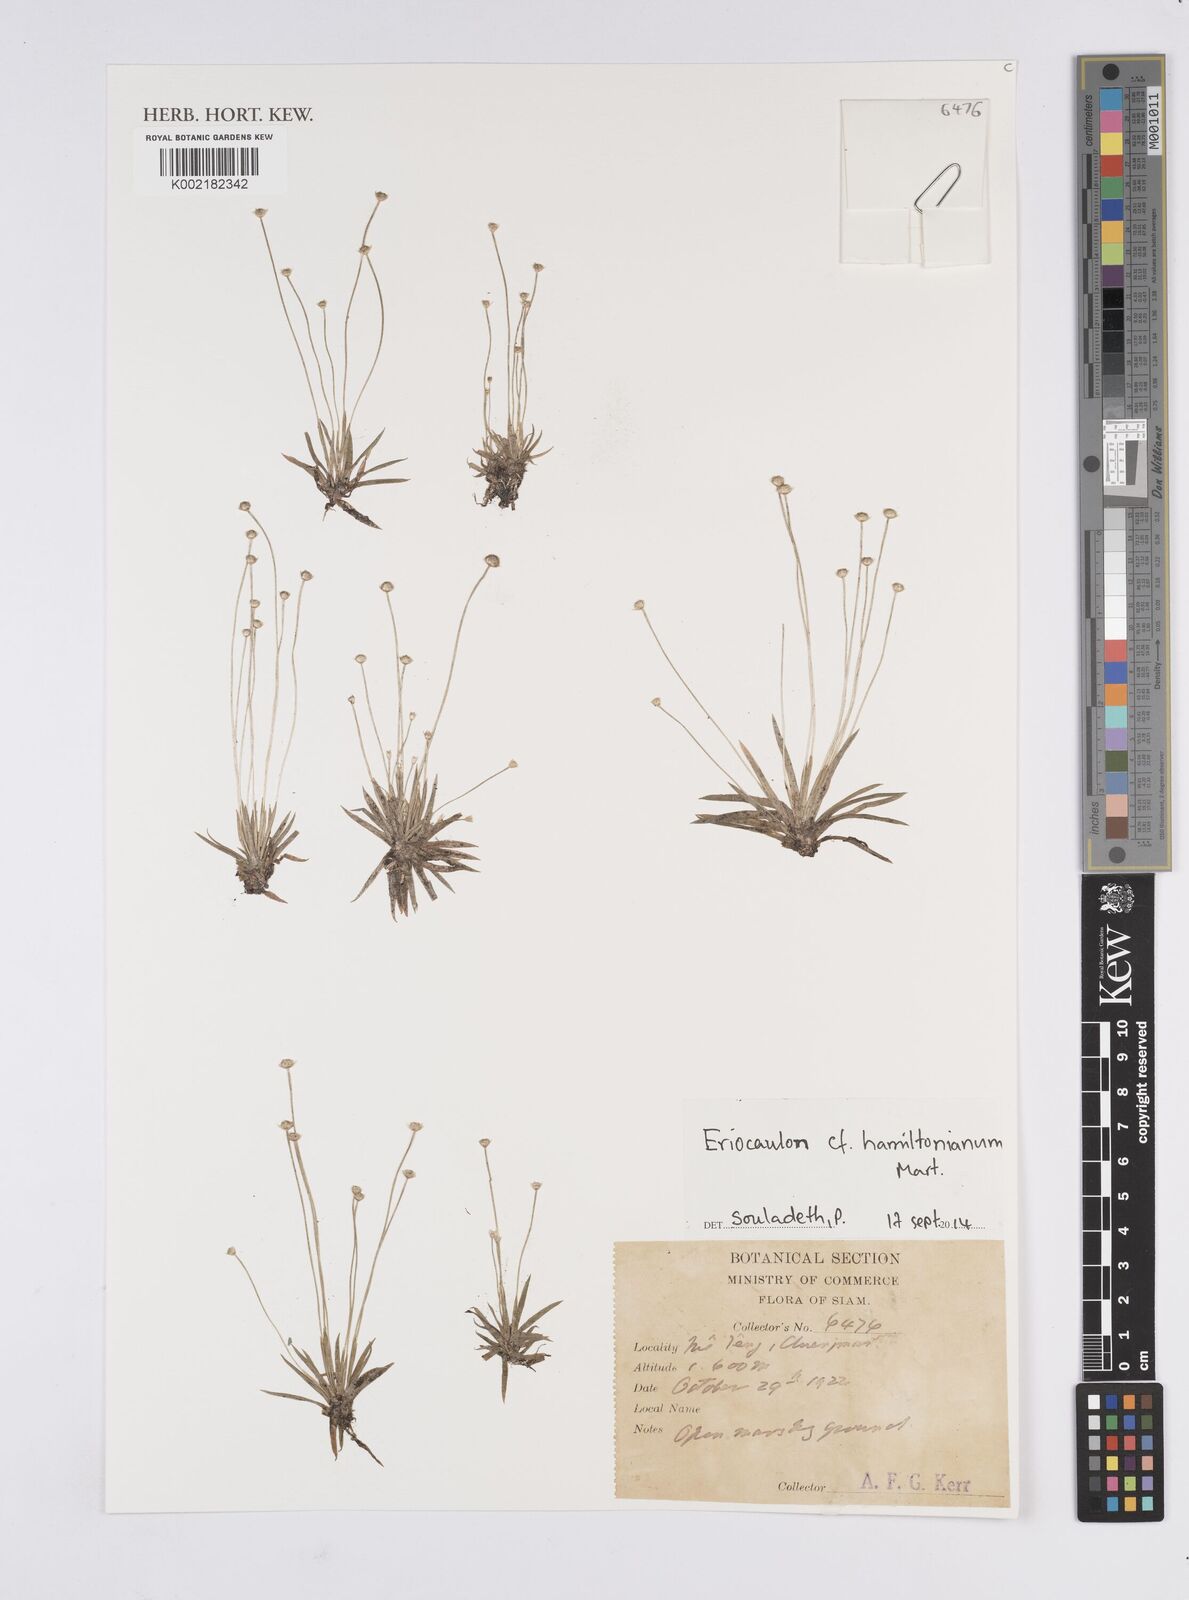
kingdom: Plantae
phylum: Tracheophyta
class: Liliopsida
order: Poales
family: Eriocaulaceae
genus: Eriocaulon
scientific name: Eriocaulon hamiltonianum
